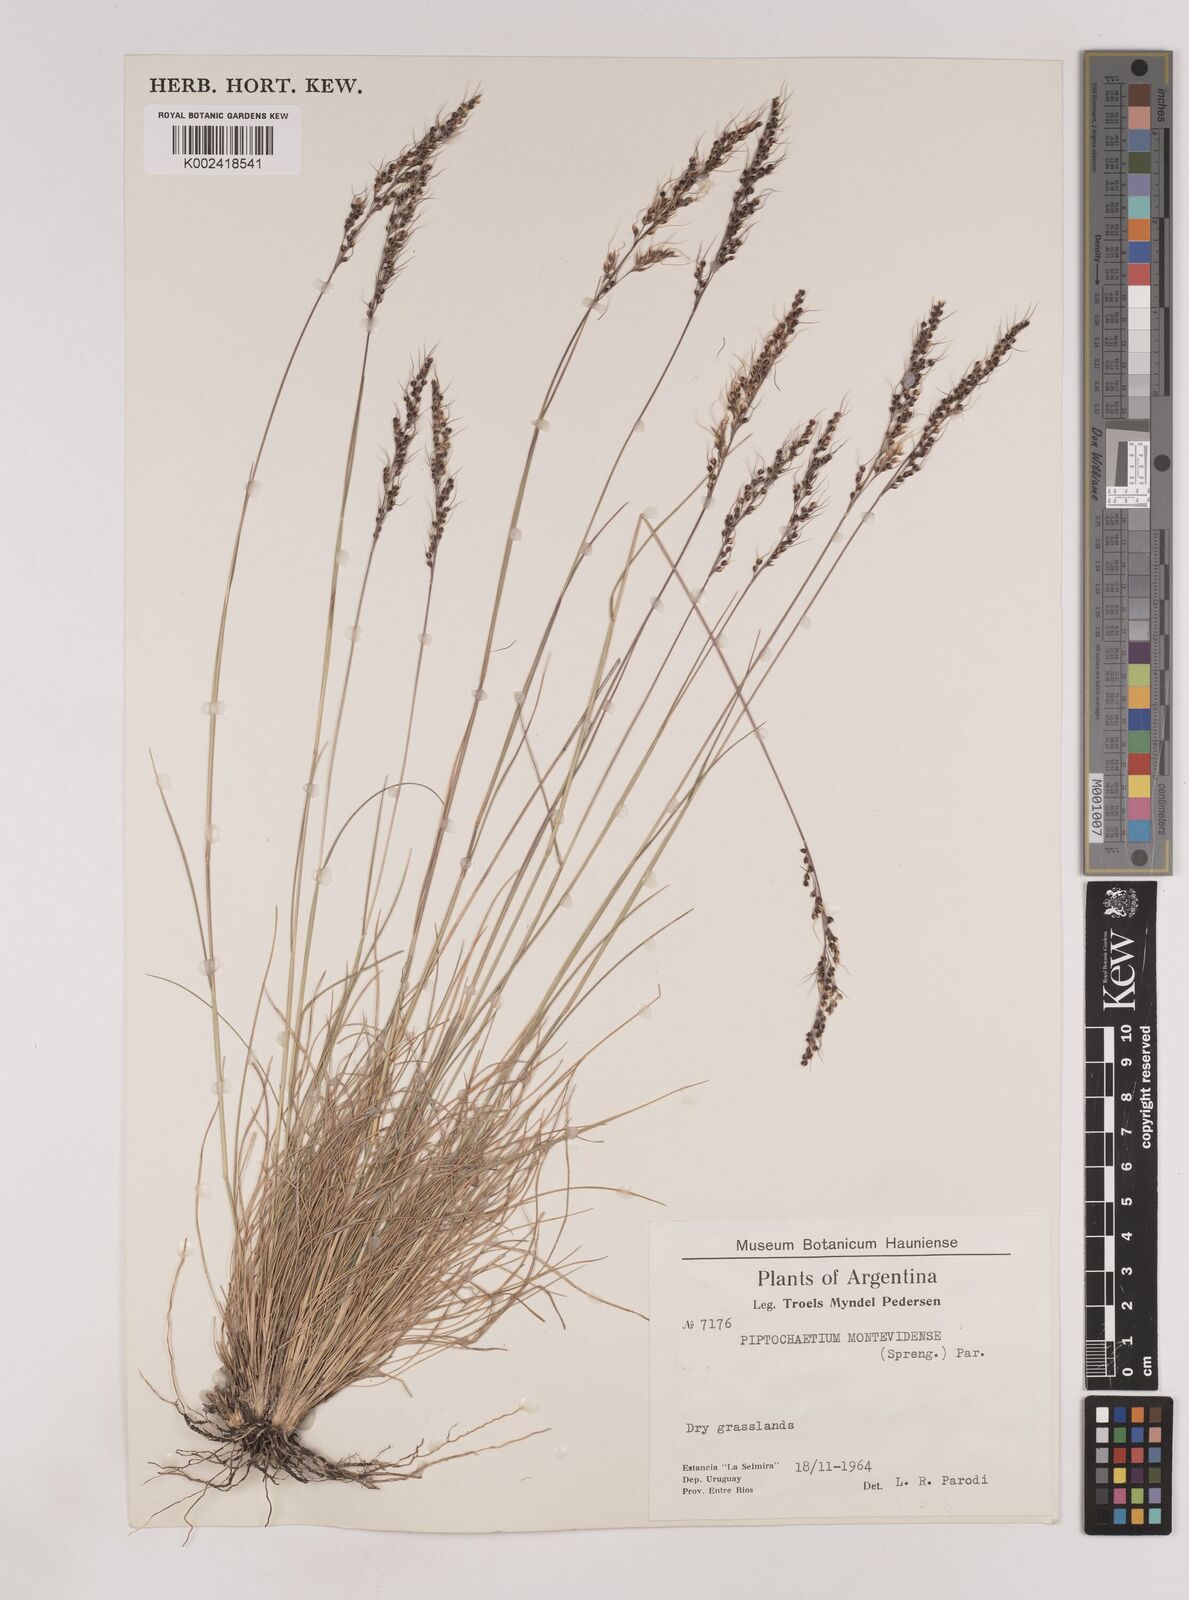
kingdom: Plantae
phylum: Tracheophyta
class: Liliopsida
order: Poales
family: Poaceae
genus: Piptochaetium
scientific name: Piptochaetium montevidense
